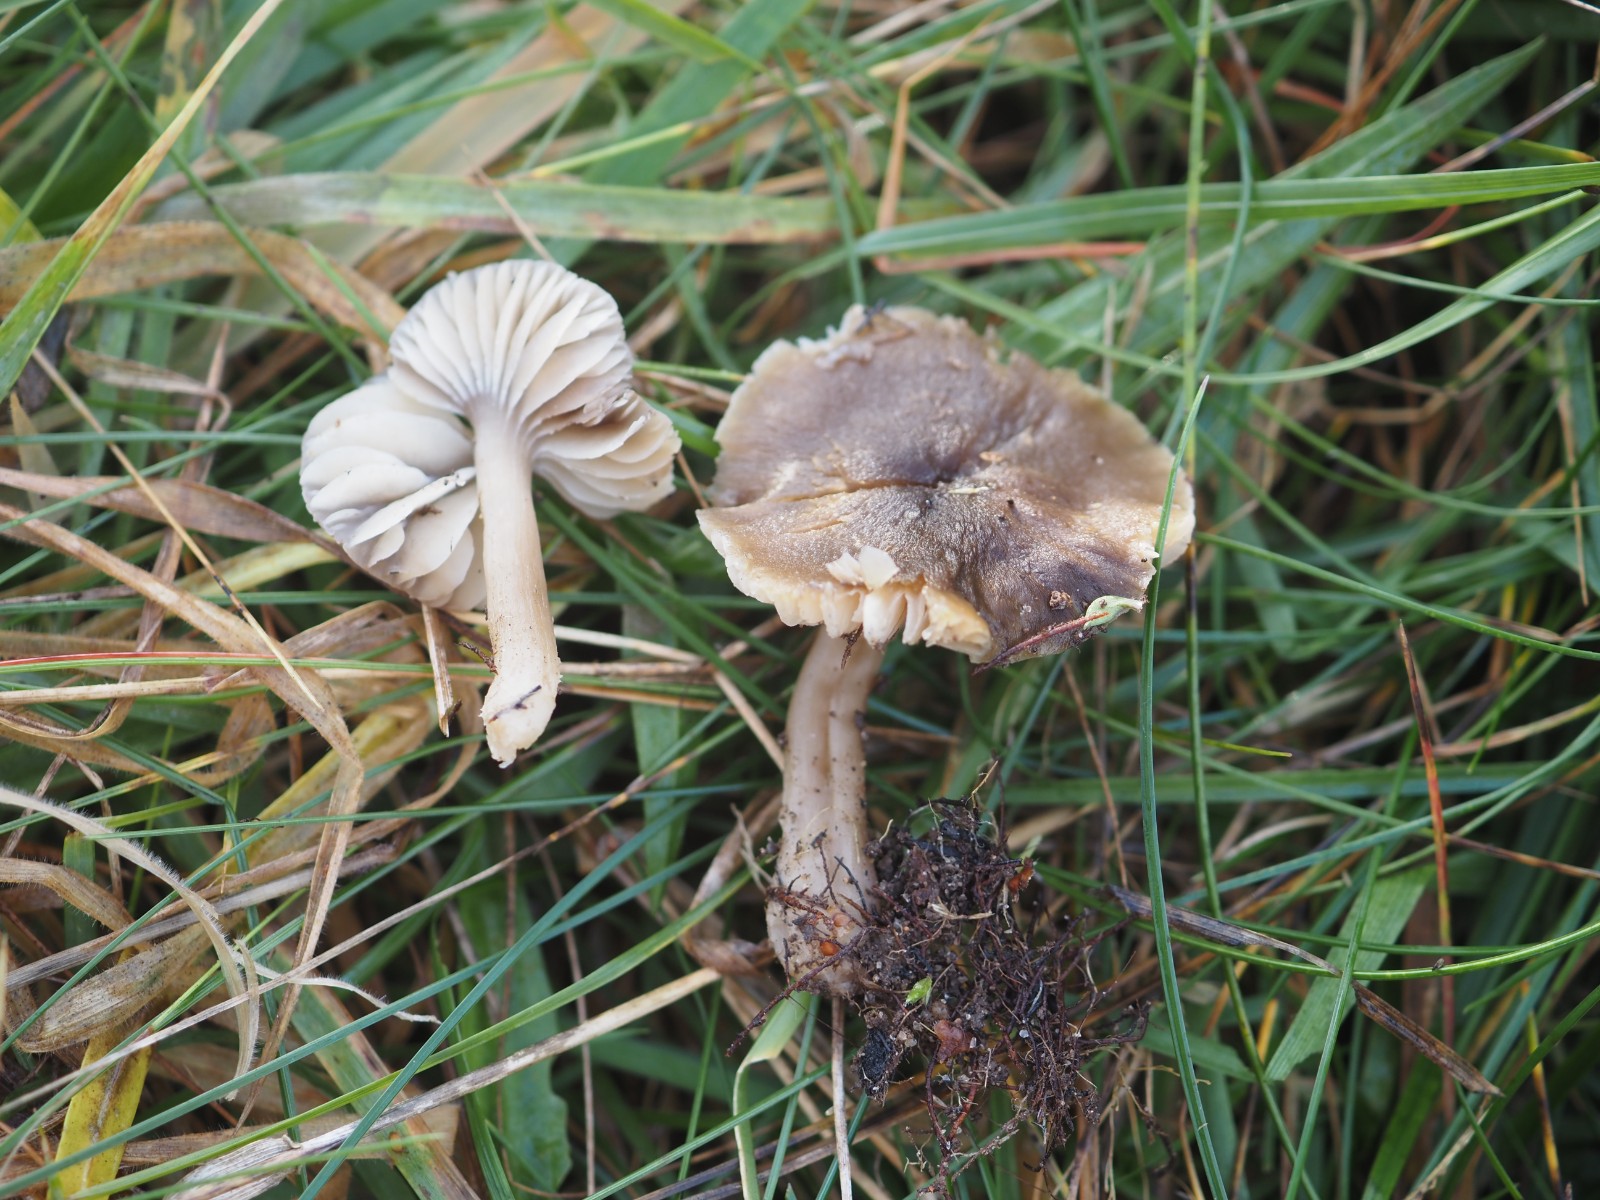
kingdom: Fungi
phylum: Basidiomycota
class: Agaricomycetes
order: Agaricales
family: Hygrophoraceae
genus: Neohygrocybe
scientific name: Neohygrocybe nitrata
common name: stinkende vokshat
